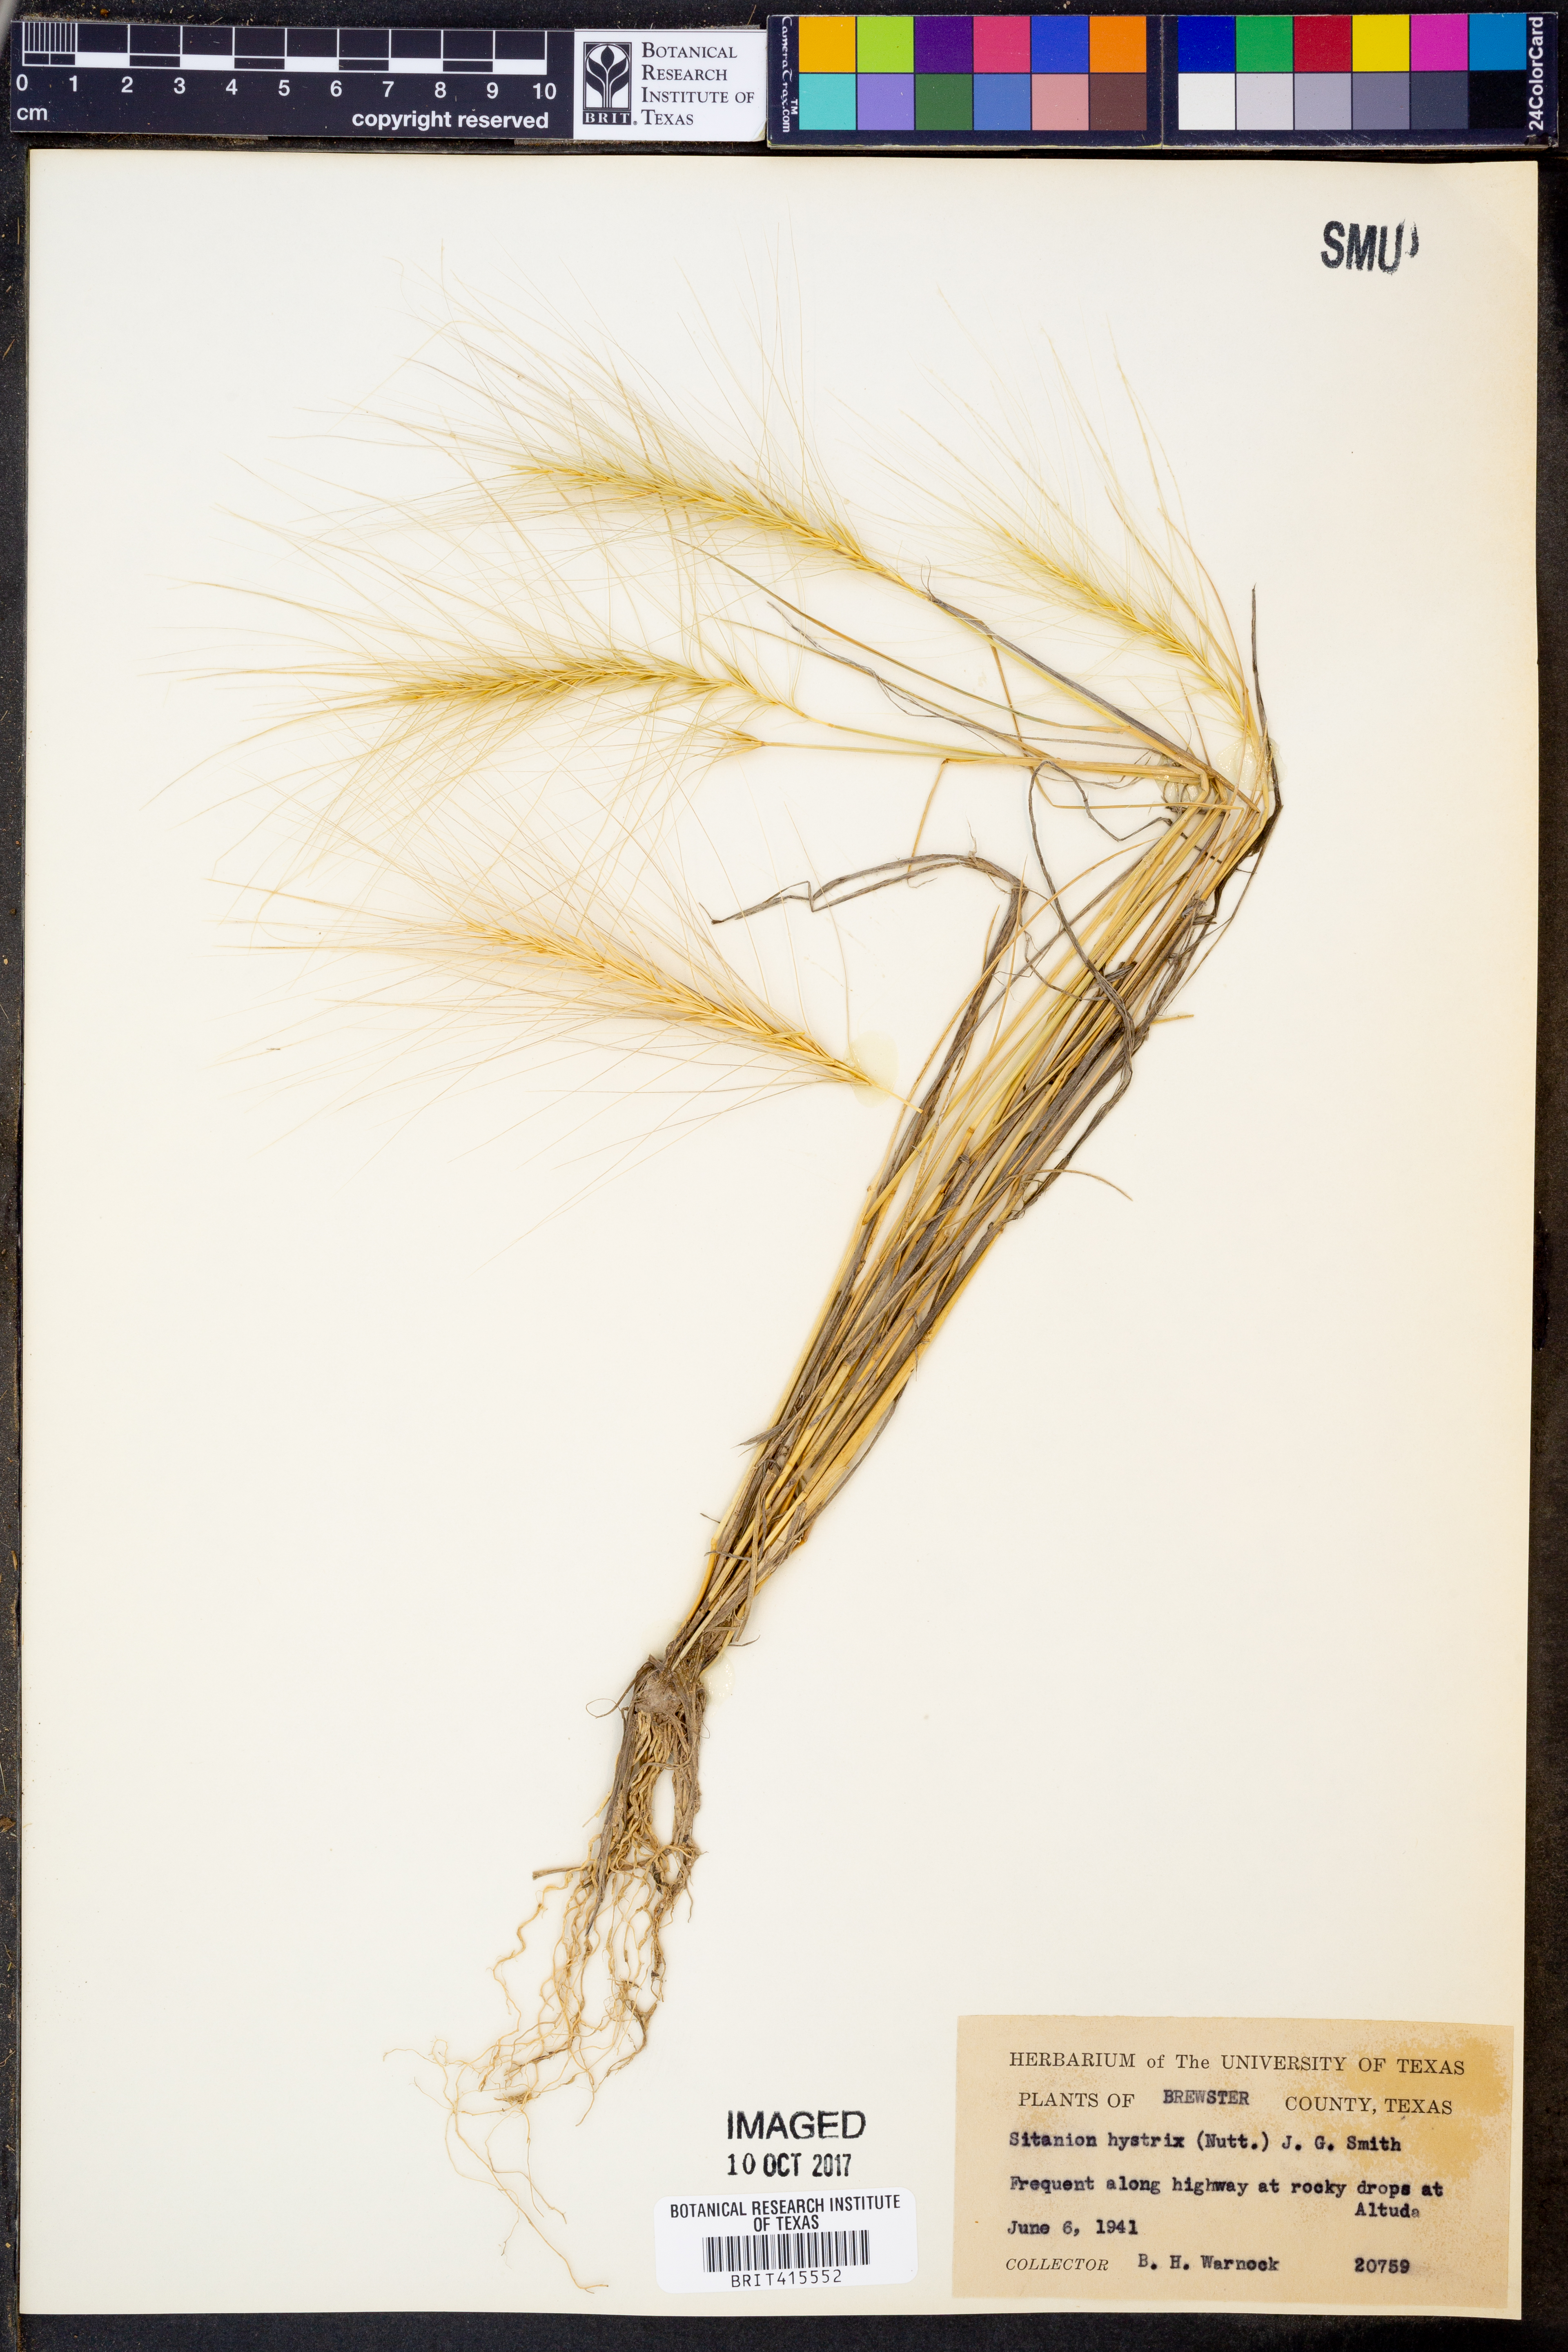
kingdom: Plantae
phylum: Tracheophyta
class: Liliopsida
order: Poales
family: Poaceae
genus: Elymus
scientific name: Elymus elymoides
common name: Bottlebrush squirreltail
